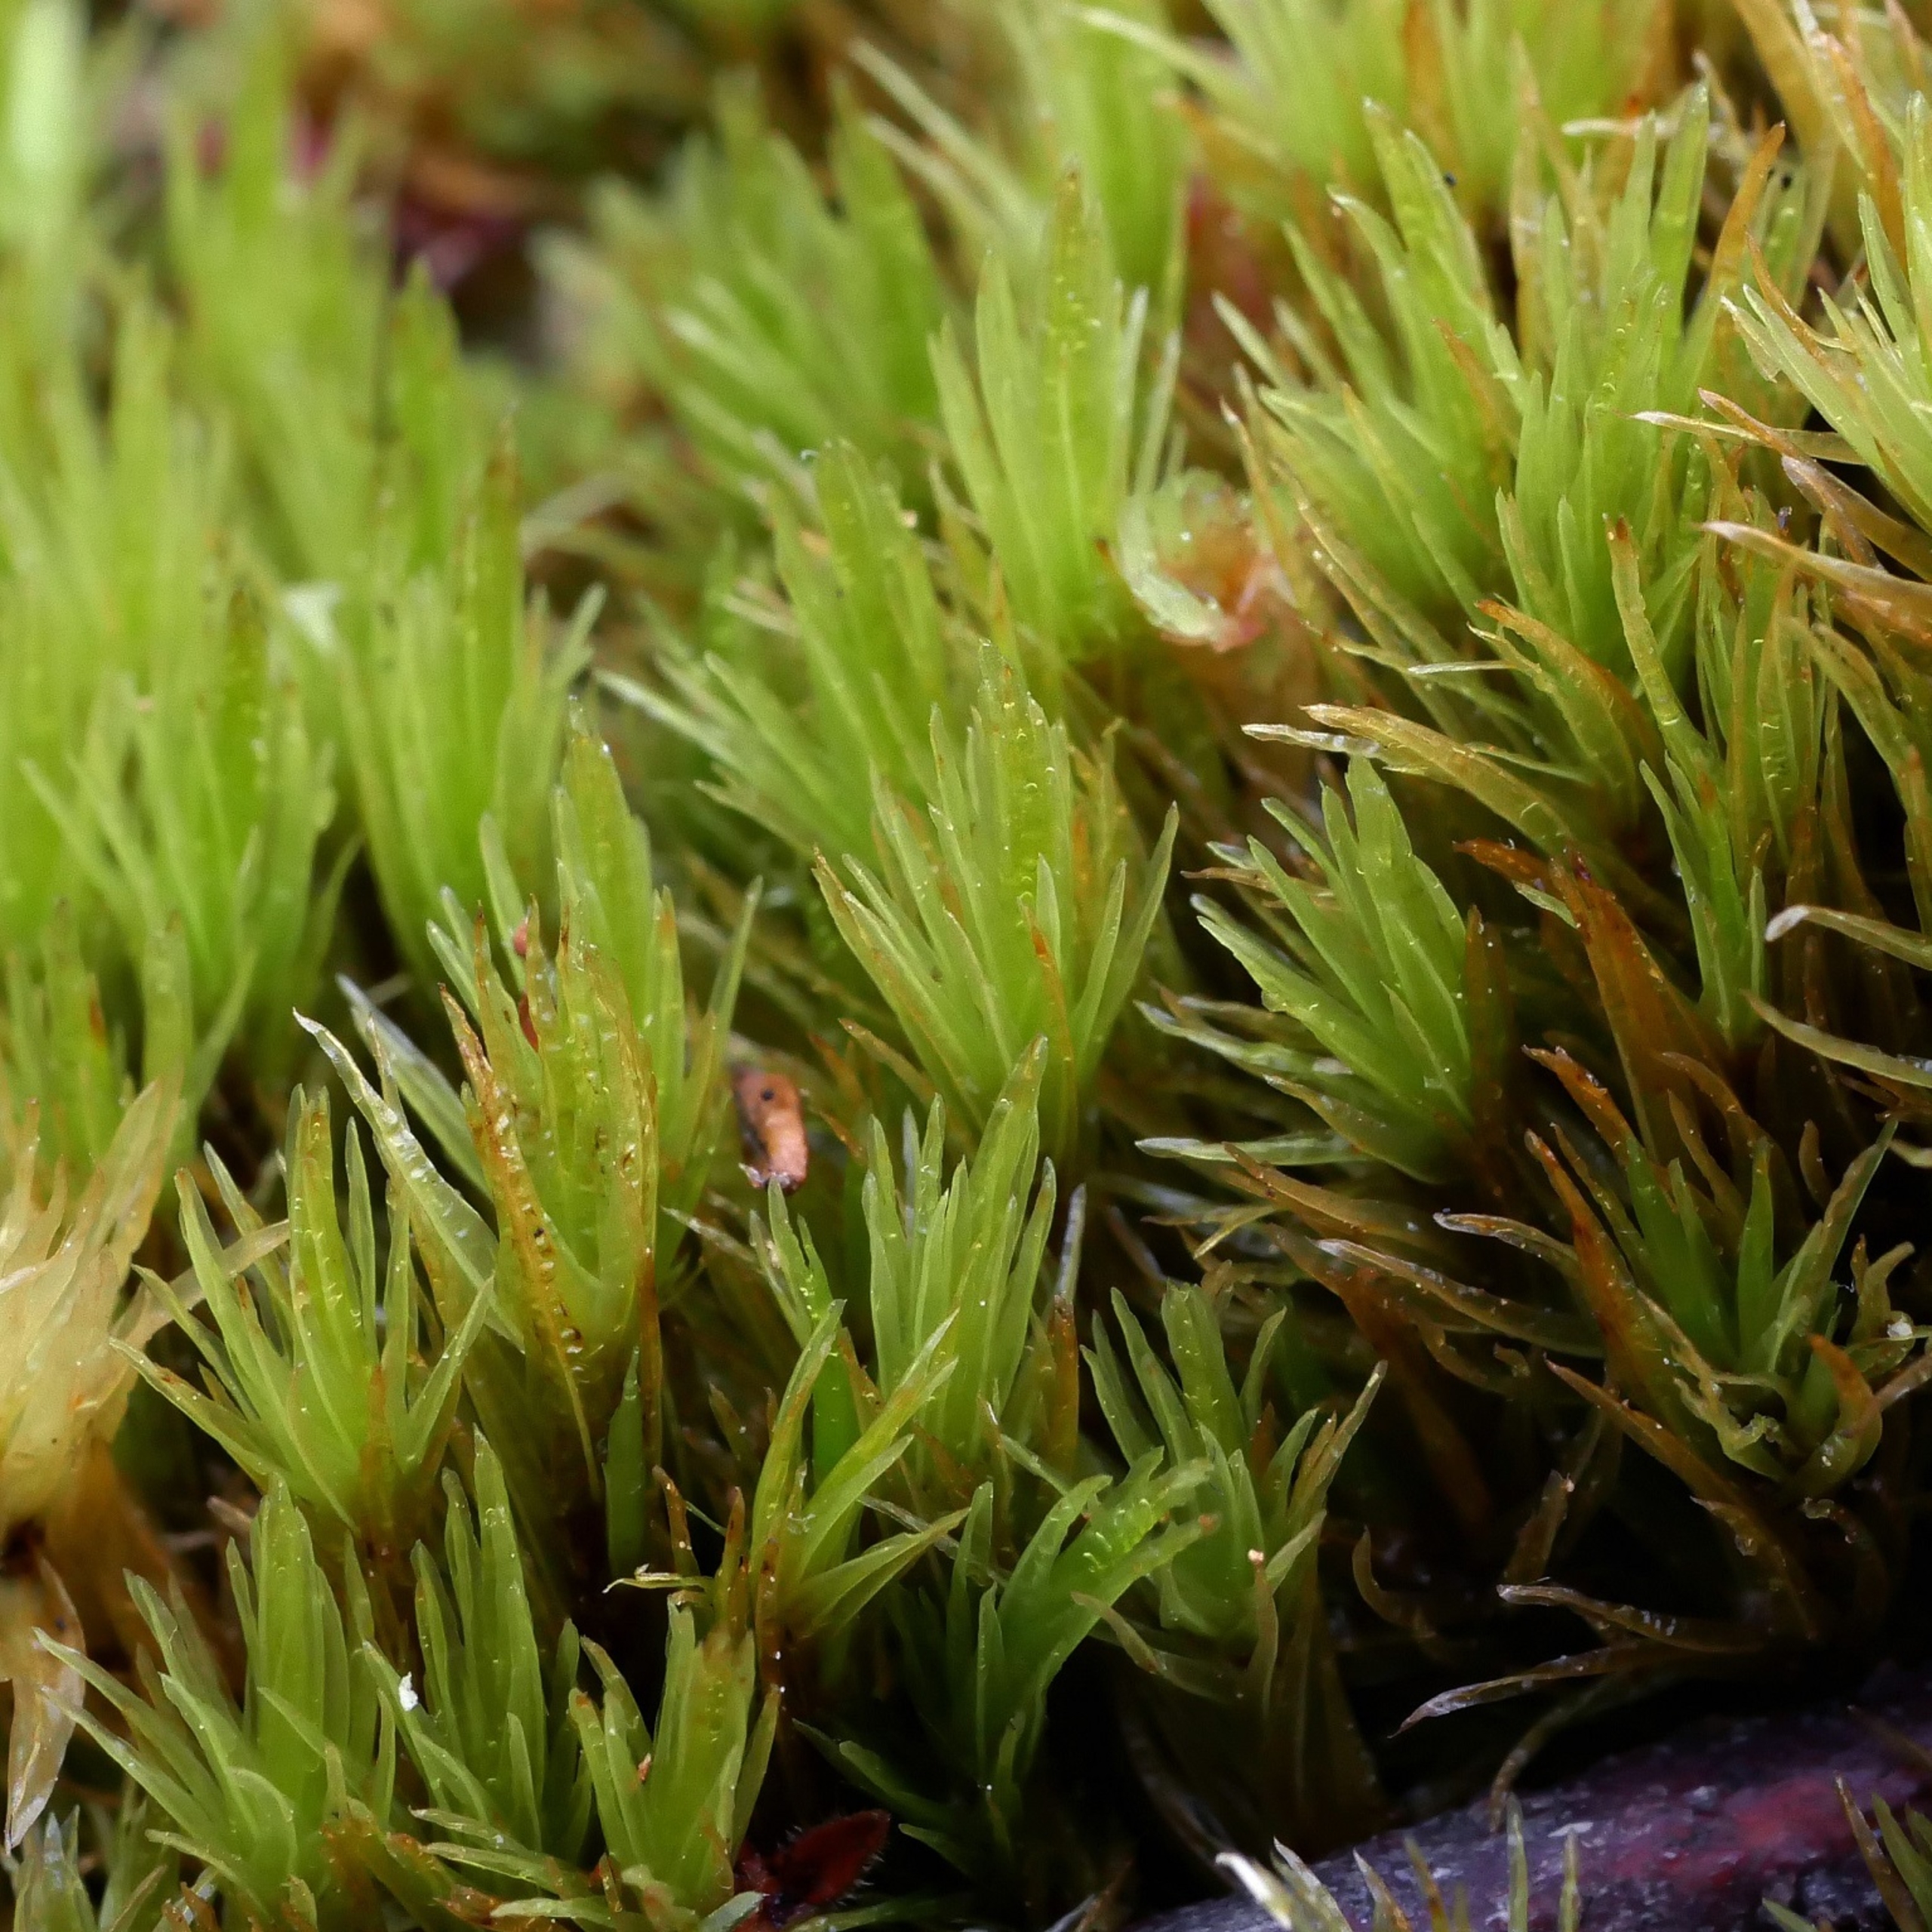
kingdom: Plantae
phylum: Bryophyta
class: Bryopsida
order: Dicranales
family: Dicranaceae
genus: Dicranum
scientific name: Dicranum undulatum
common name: Butbladet kløvtand
